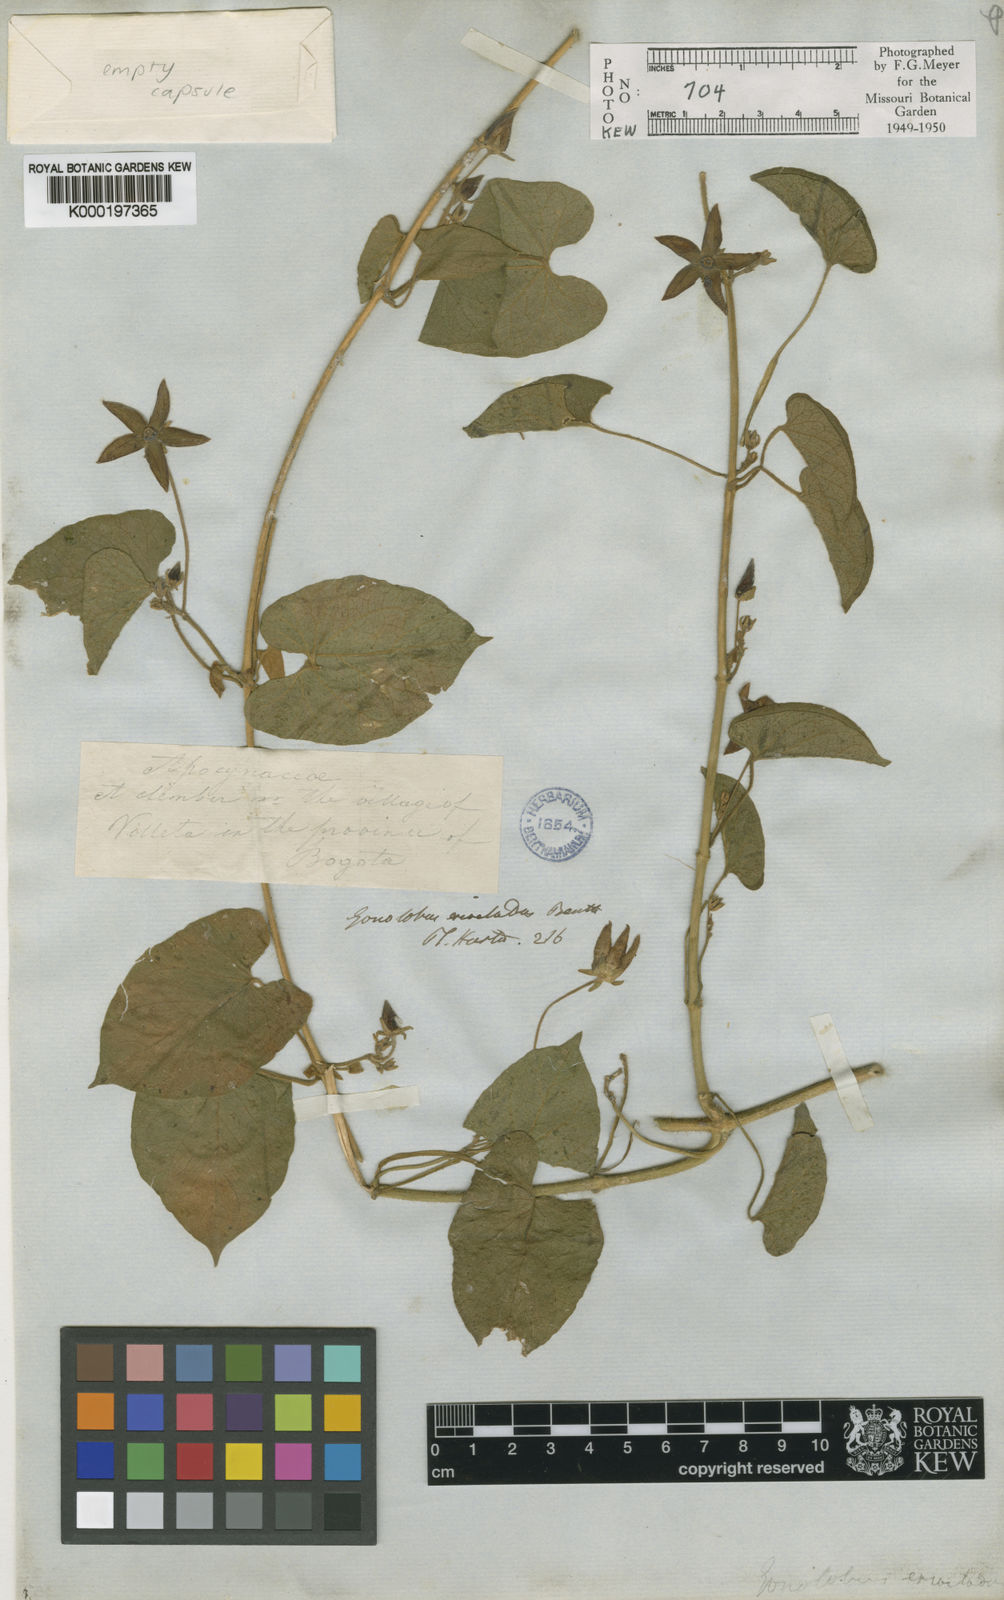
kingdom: Plantae
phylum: Tracheophyta
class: Magnoliopsida
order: Gentianales
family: Apocynaceae
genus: Gonolobus
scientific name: Gonolobus eriocladon
